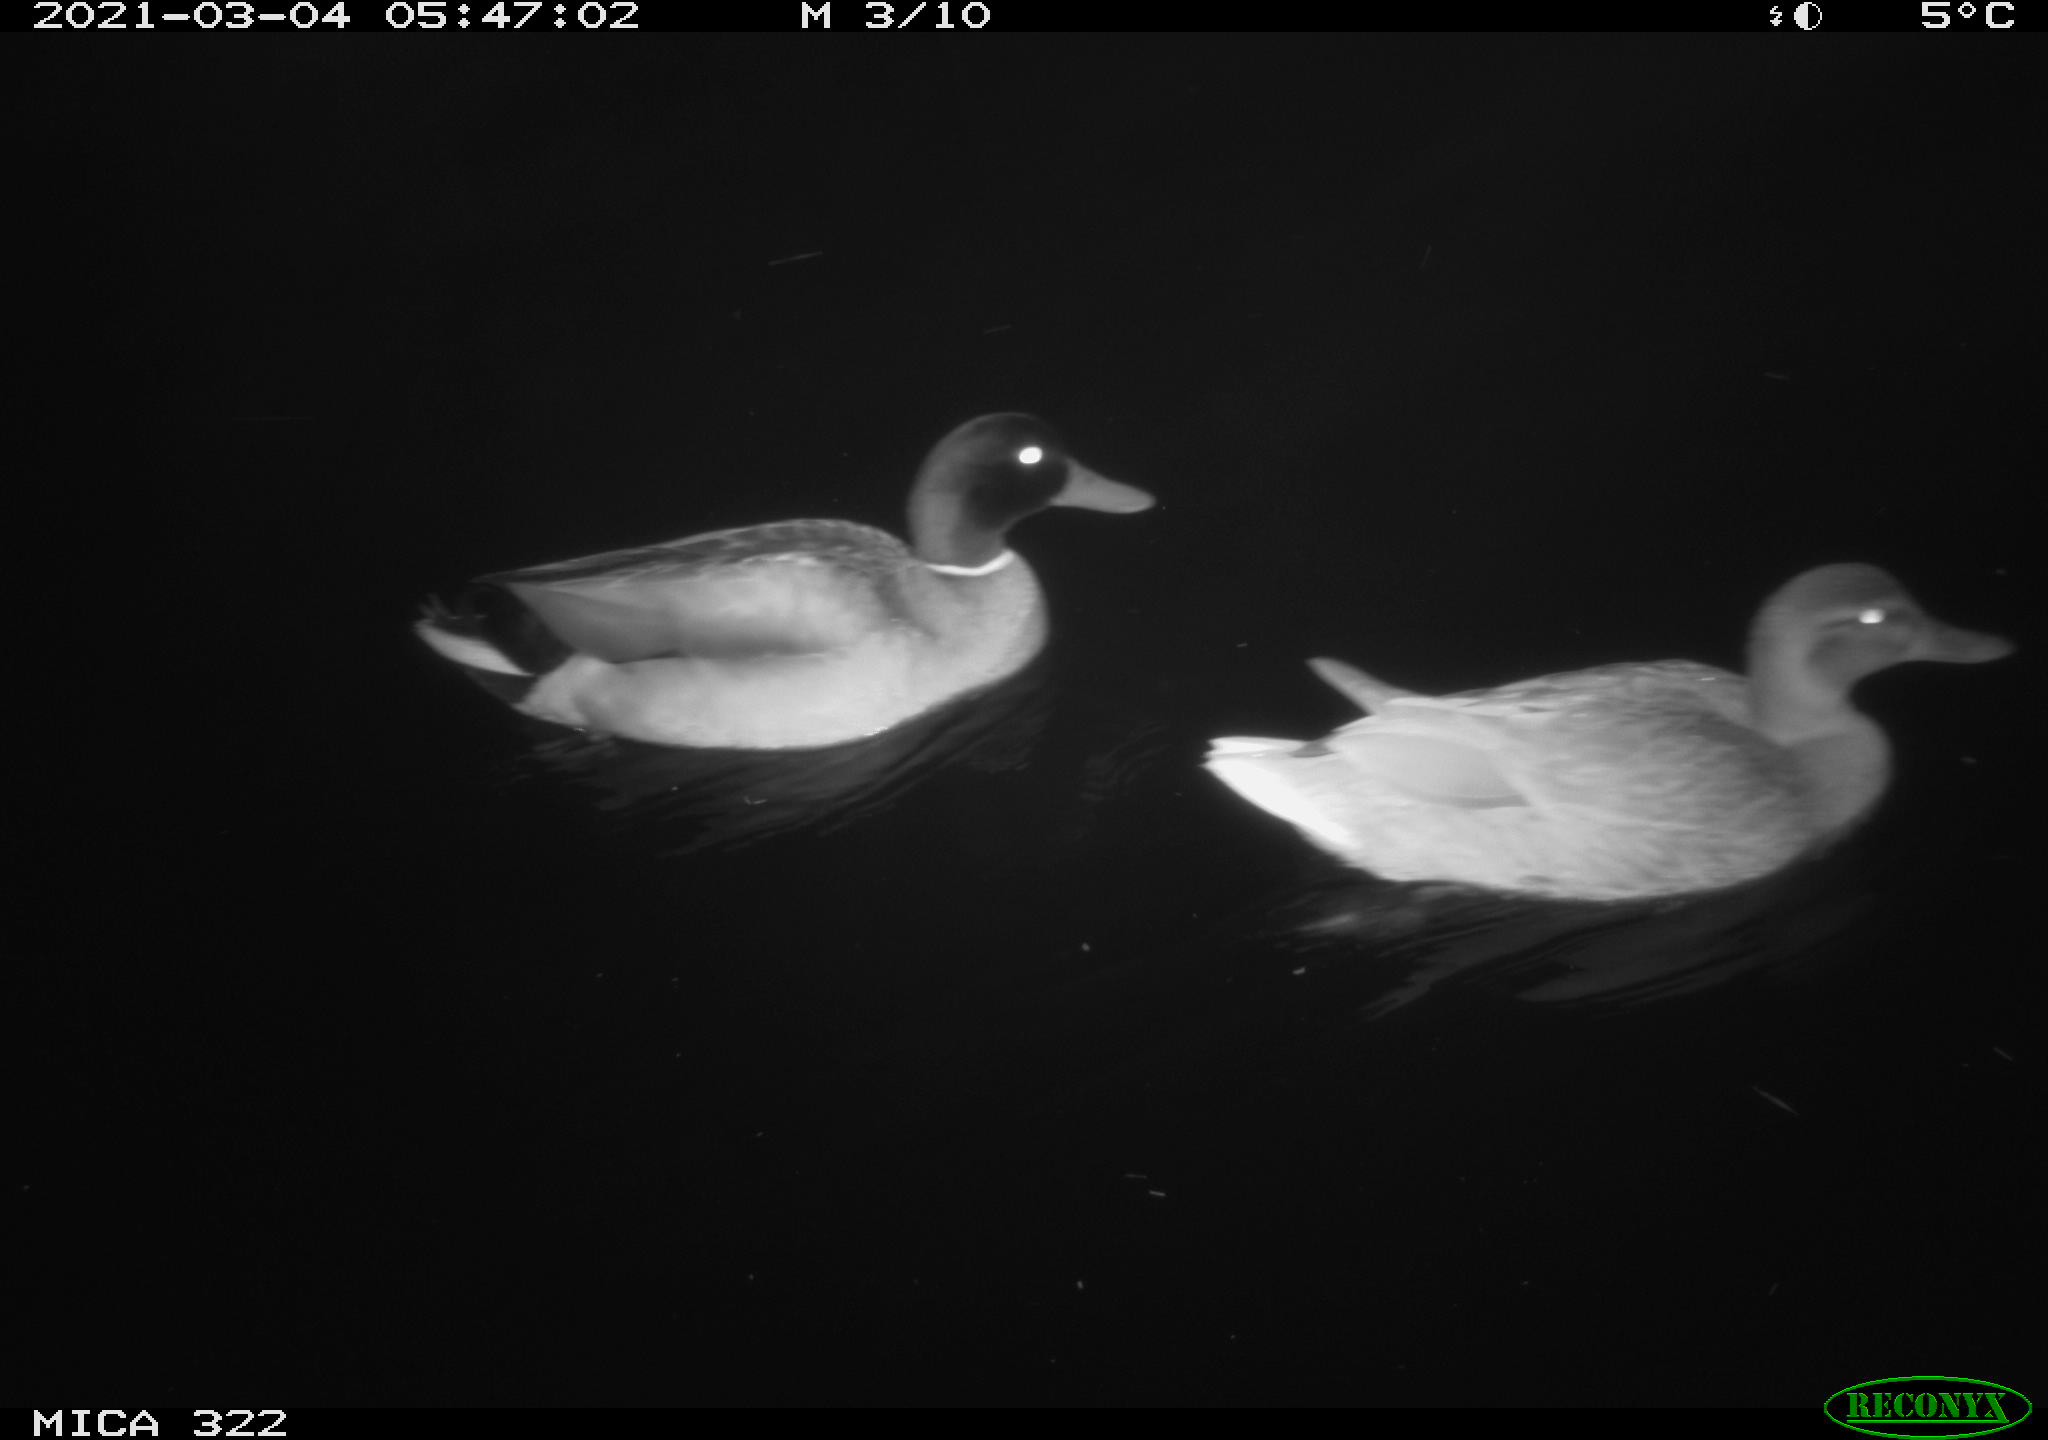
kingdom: Animalia
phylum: Chordata
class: Aves
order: Anseriformes
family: Anatidae
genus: Anas
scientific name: Anas platyrhynchos
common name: Mallard
